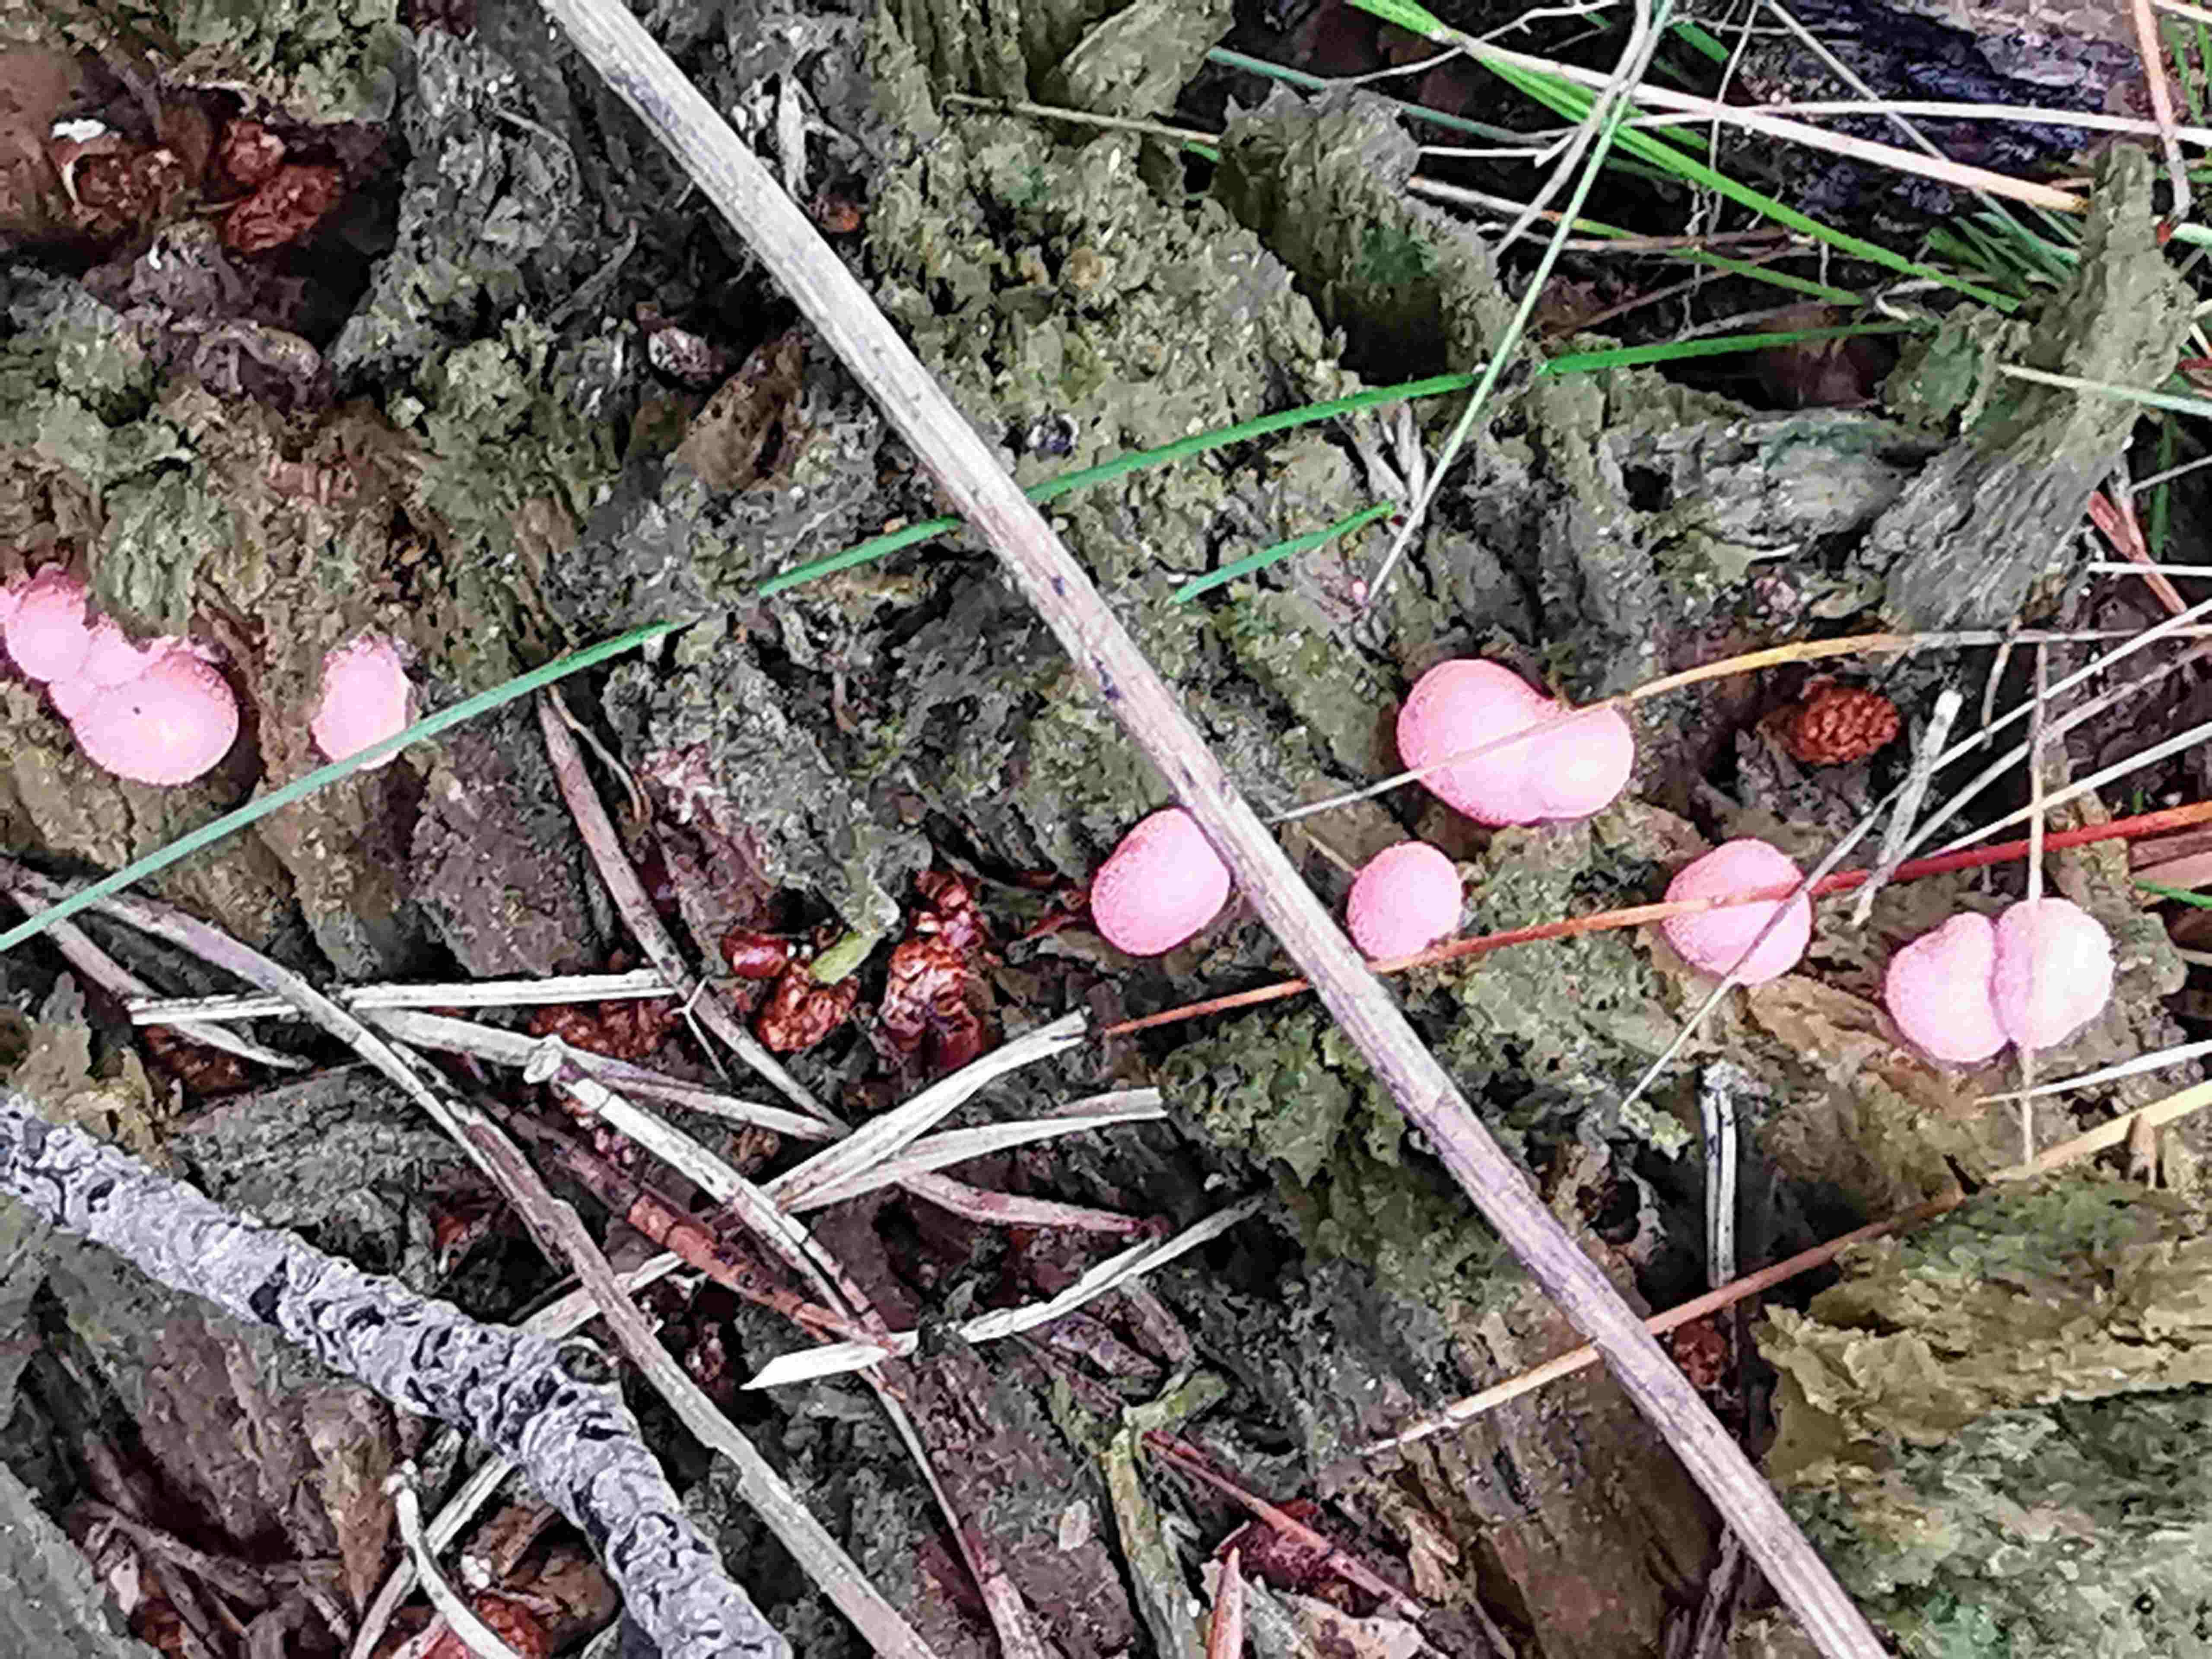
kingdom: Protozoa
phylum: Mycetozoa
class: Myxomycetes
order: Cribrariales
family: Tubiferaceae
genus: Lycogala
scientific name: Lycogala epidendrum
